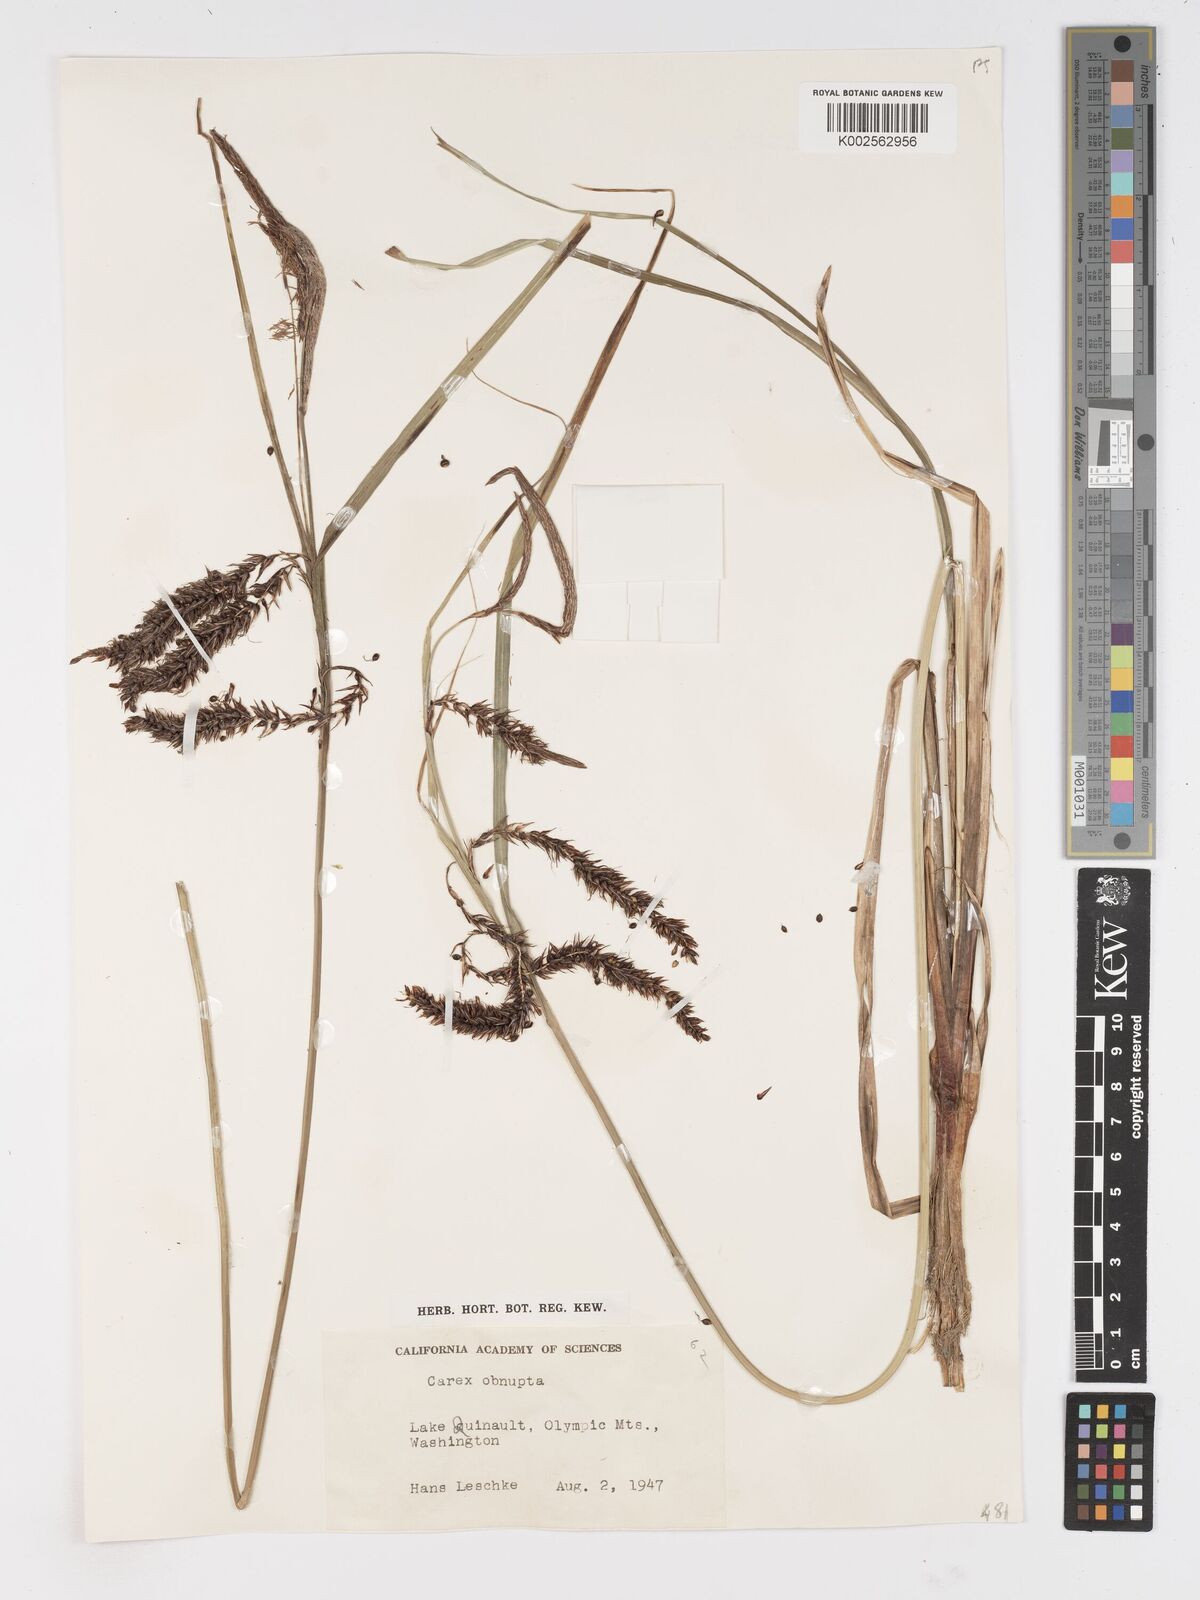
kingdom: Plantae
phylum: Tracheophyta
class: Liliopsida
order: Poales
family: Cyperaceae
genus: Carex
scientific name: Carex obnupta
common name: Slough sedge
